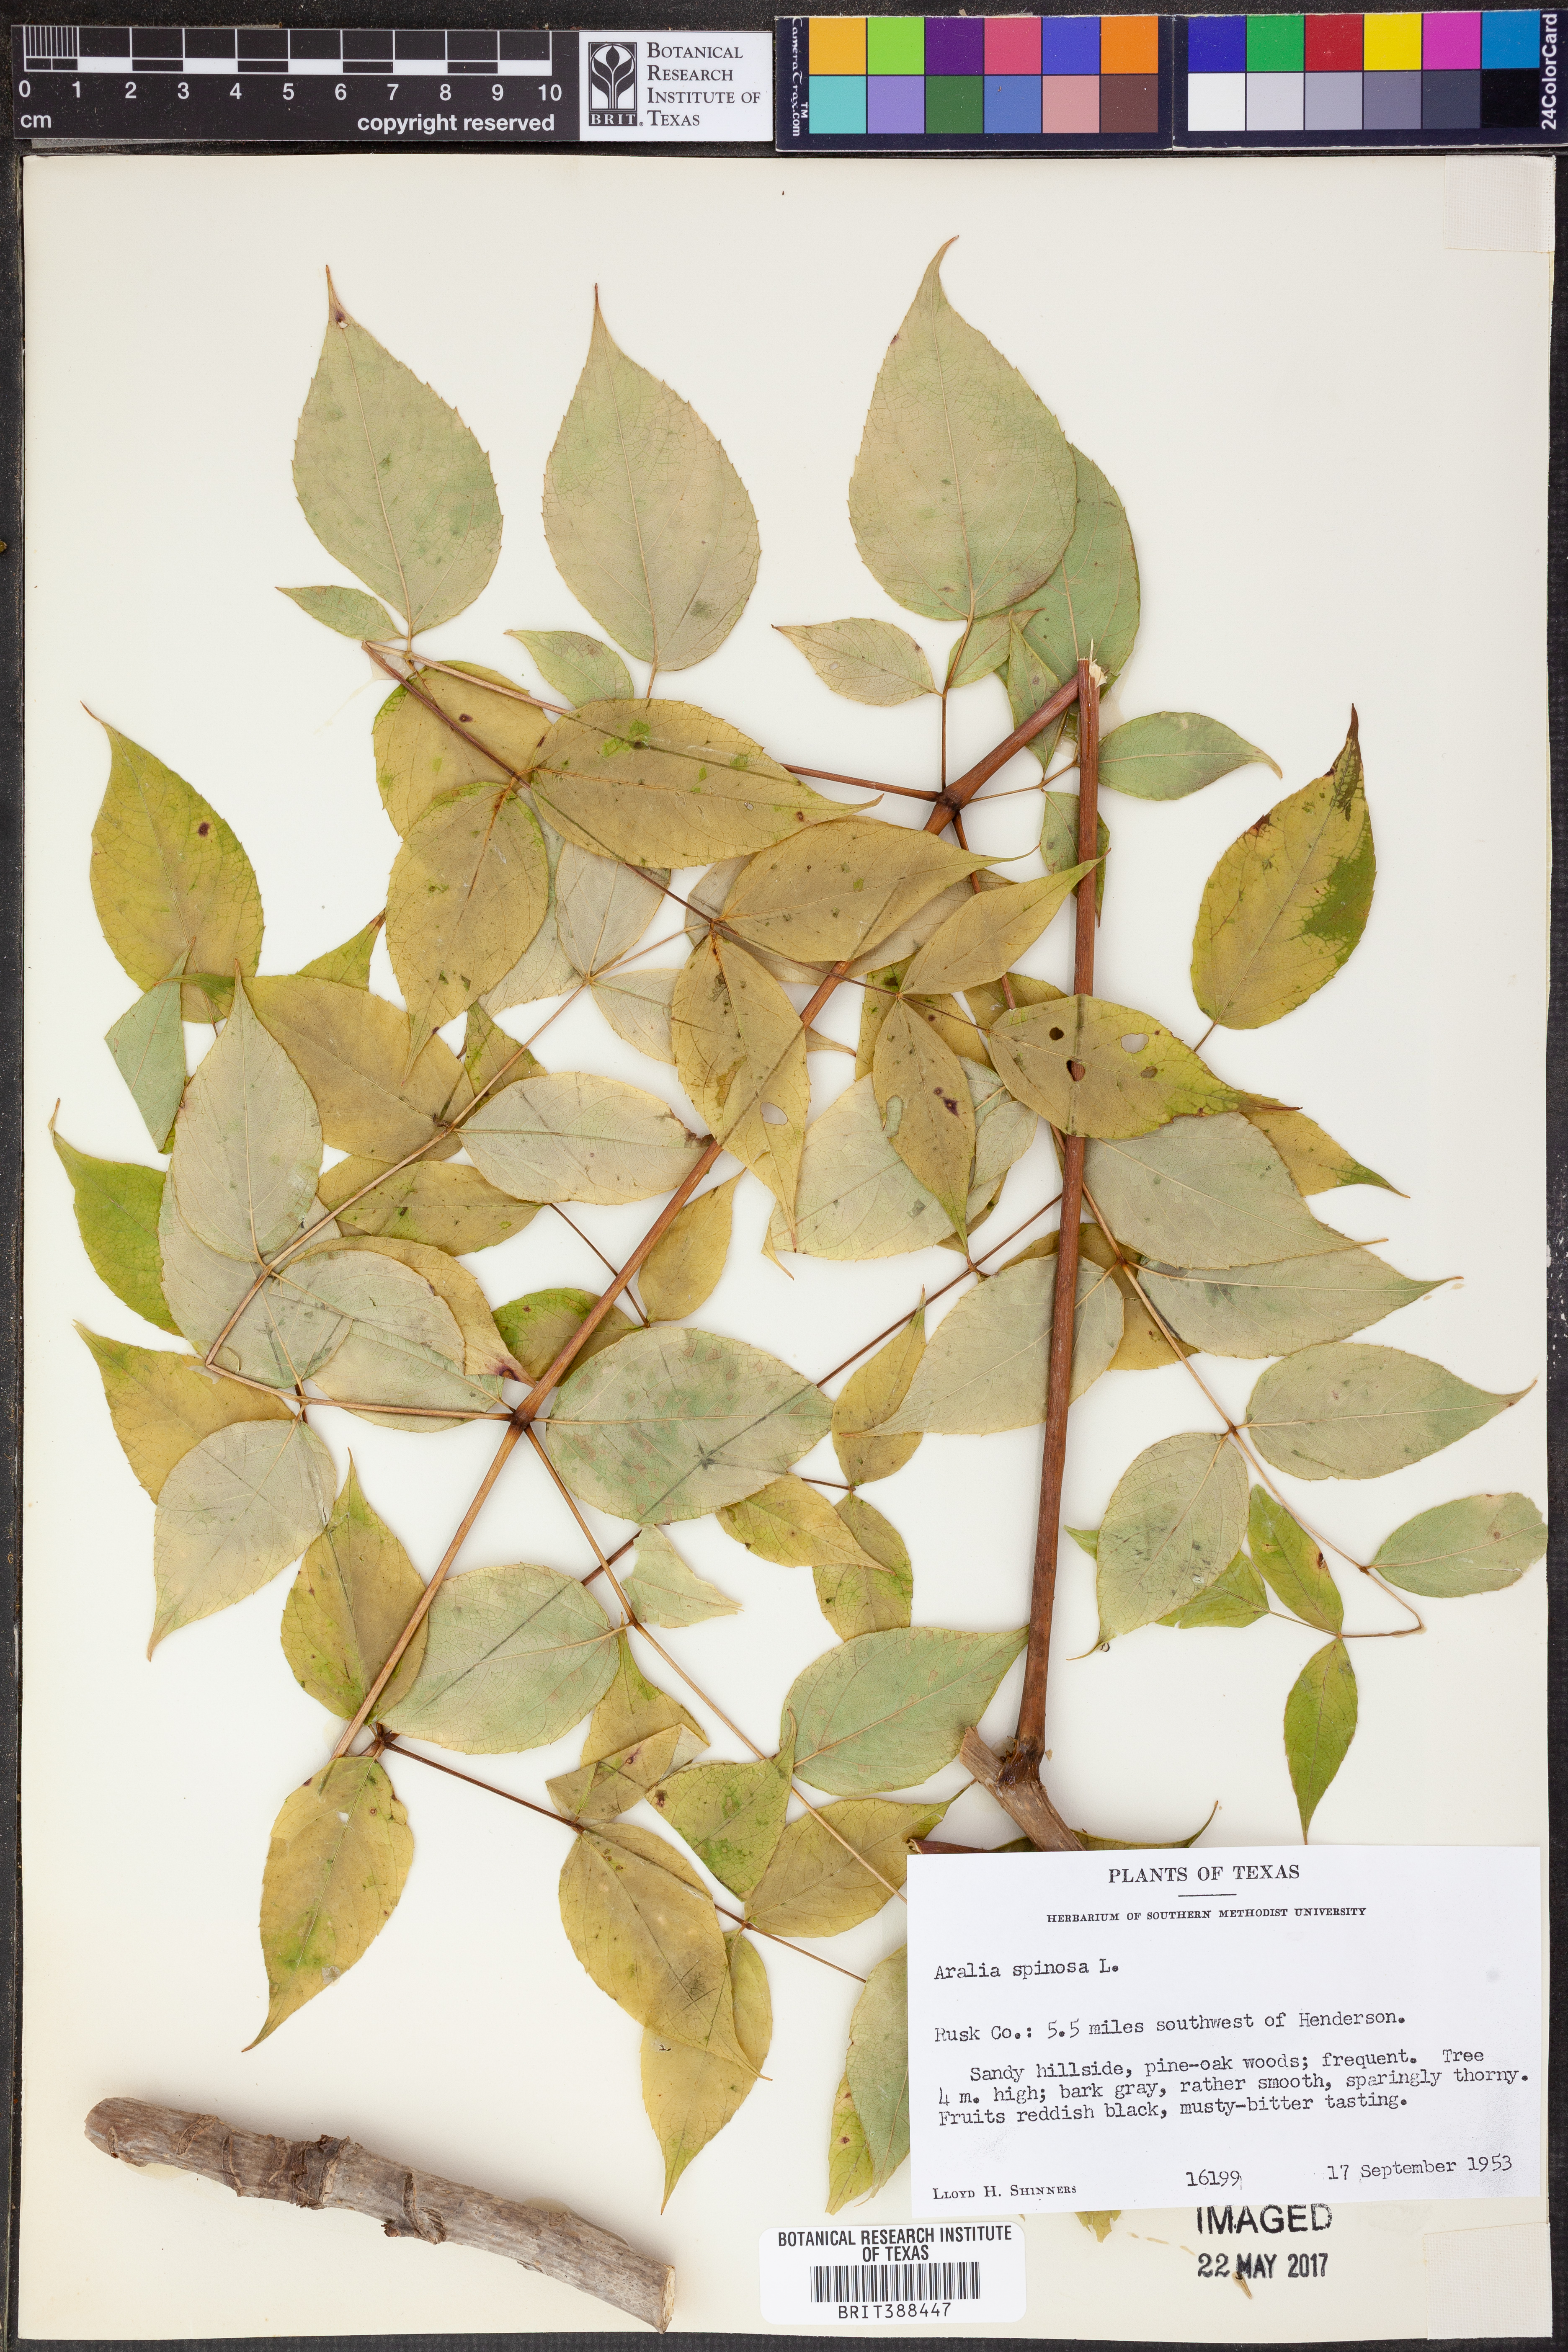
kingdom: Plantae
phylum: Tracheophyta
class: Magnoliopsida
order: Apiales
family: Araliaceae
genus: Aralia
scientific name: Aralia spinosa
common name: Hercules'-club
